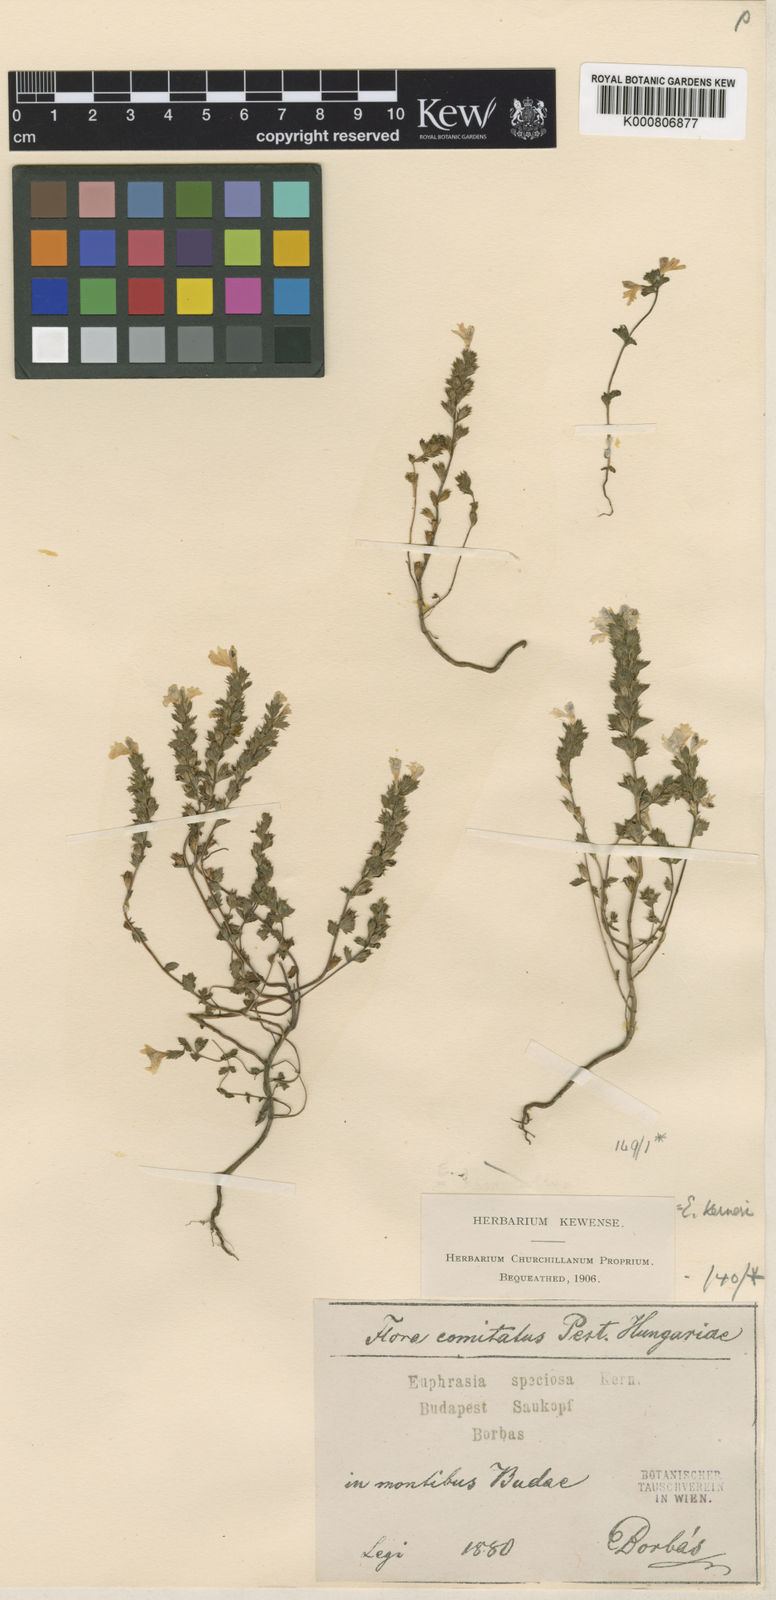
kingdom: Plantae
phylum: Tracheophyta
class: Magnoliopsida
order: Lamiales
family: Orobanchaceae
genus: Euphrasia
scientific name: Euphrasia kerneri
